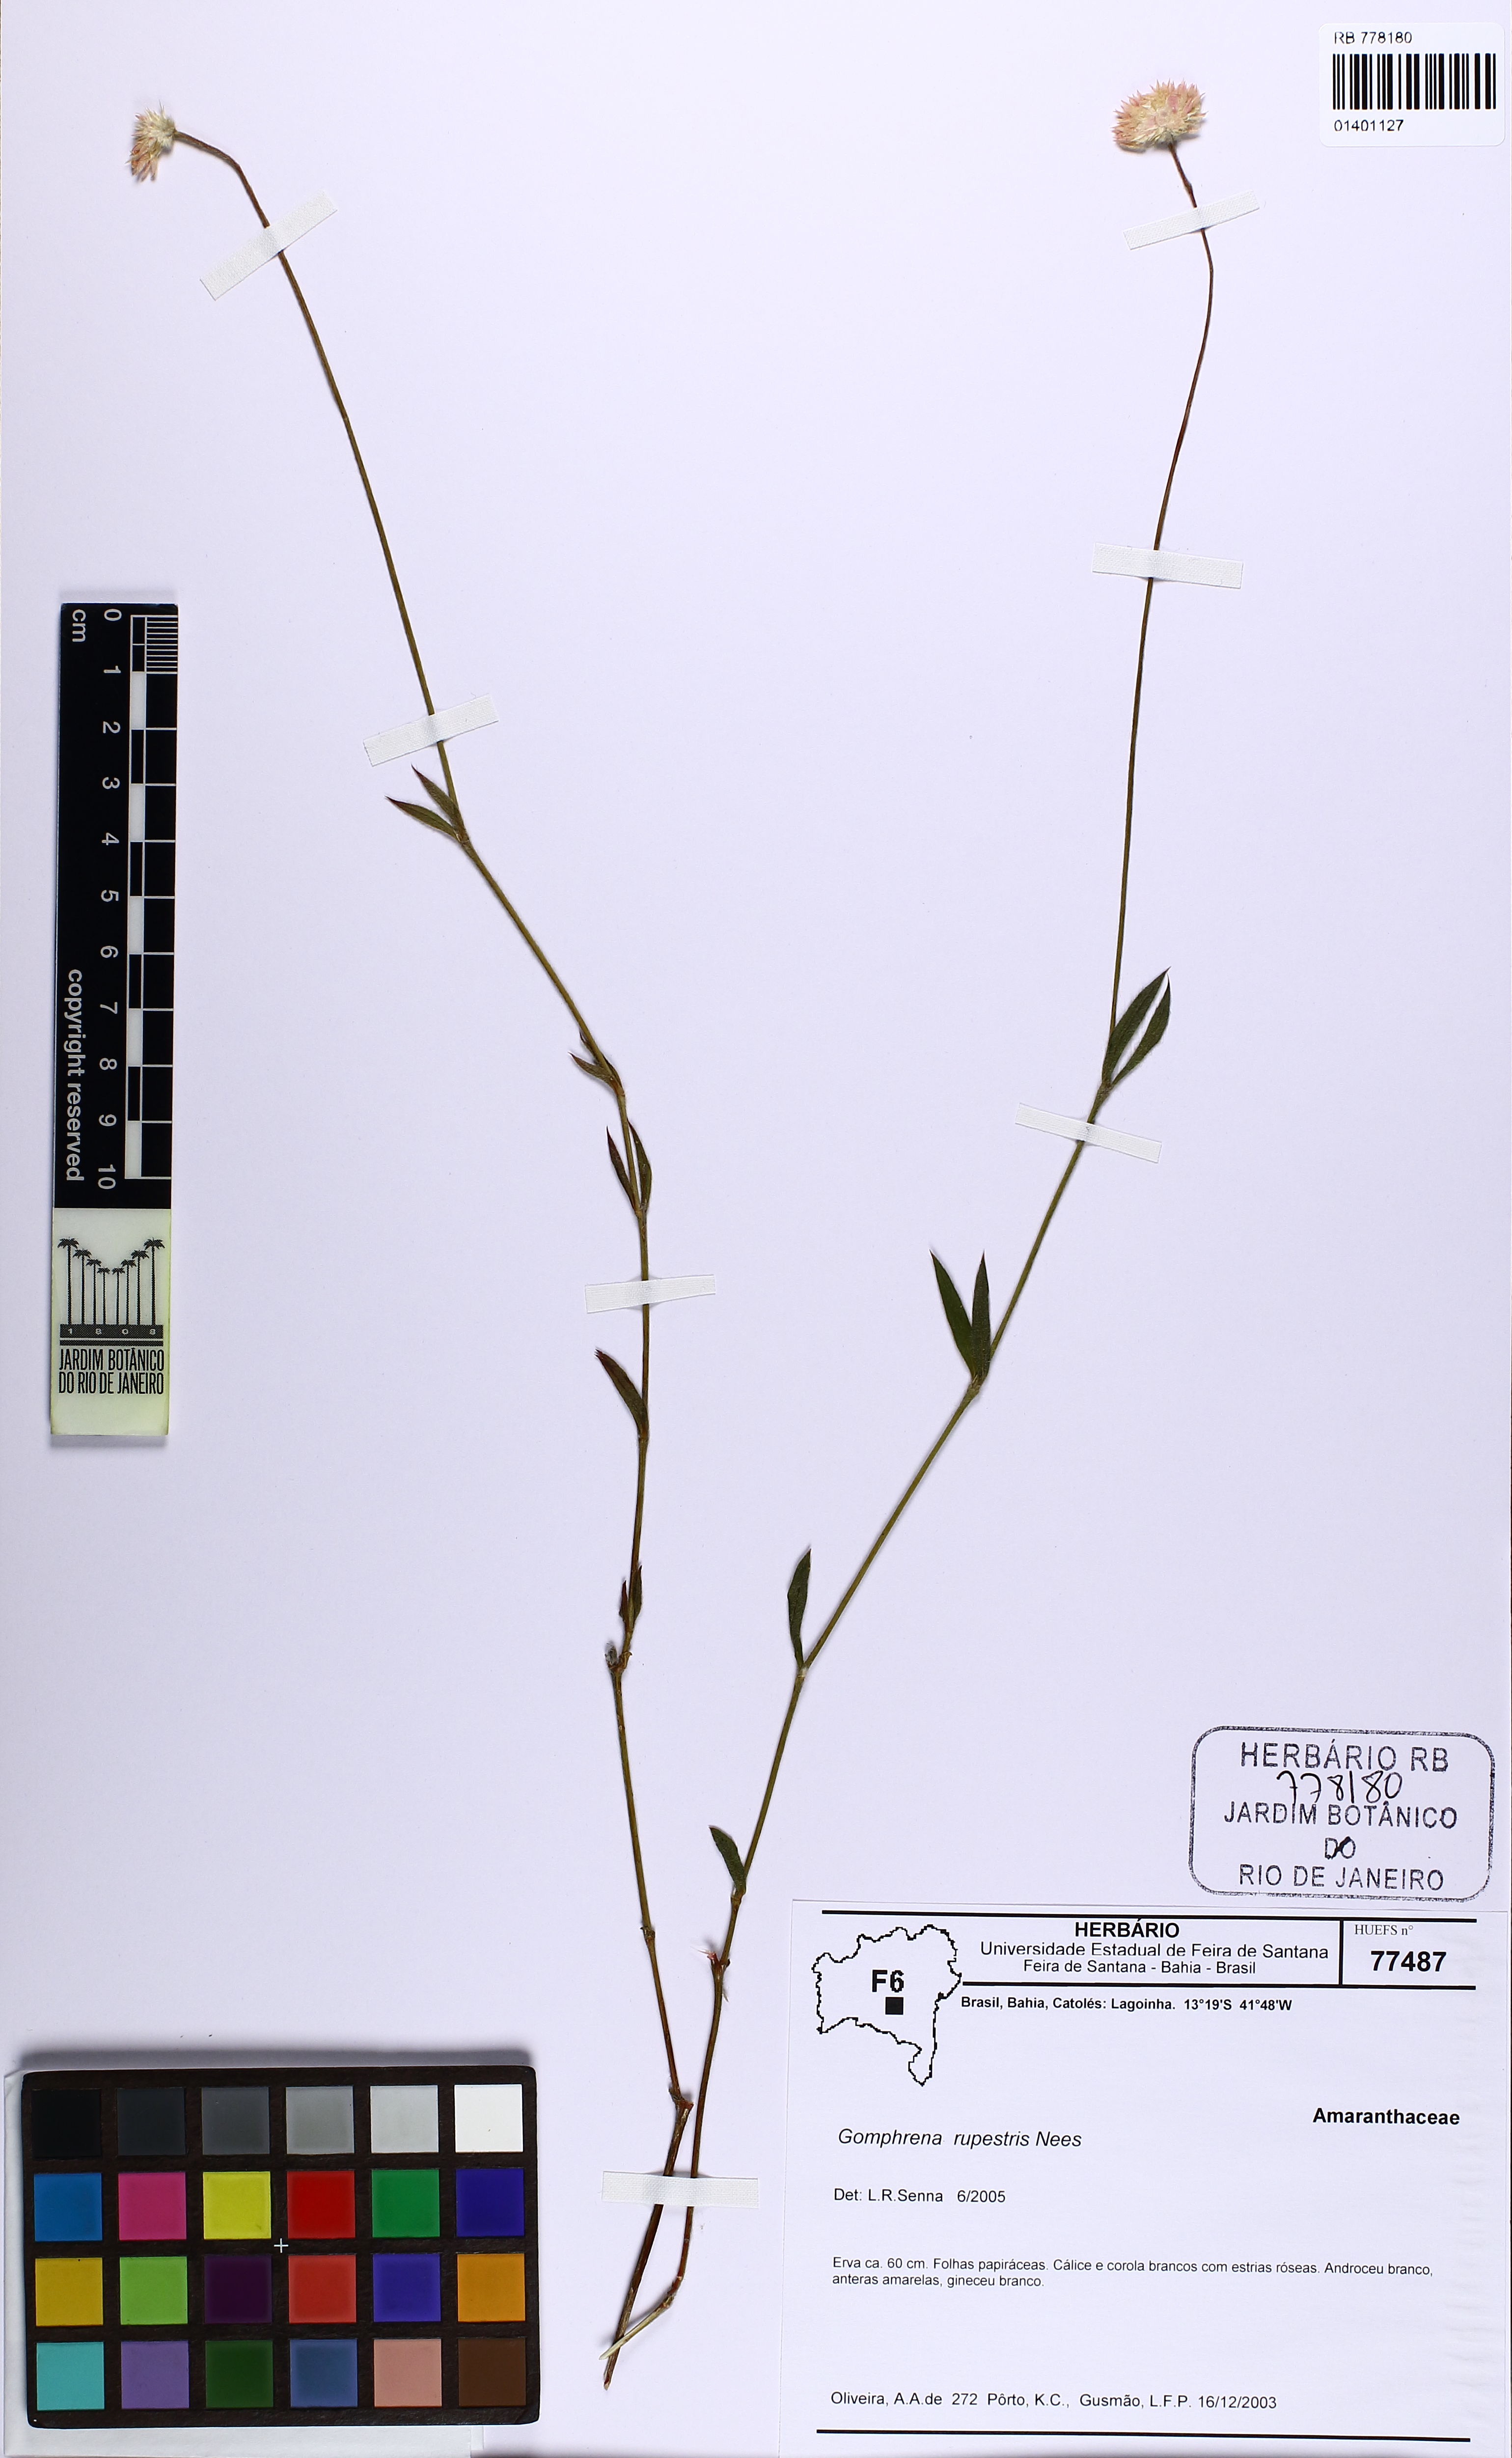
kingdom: Plantae
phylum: Tracheophyta
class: Magnoliopsida
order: Caryophyllales
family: Amaranthaceae
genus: Gomphrena
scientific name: Gomphrena rupestris
